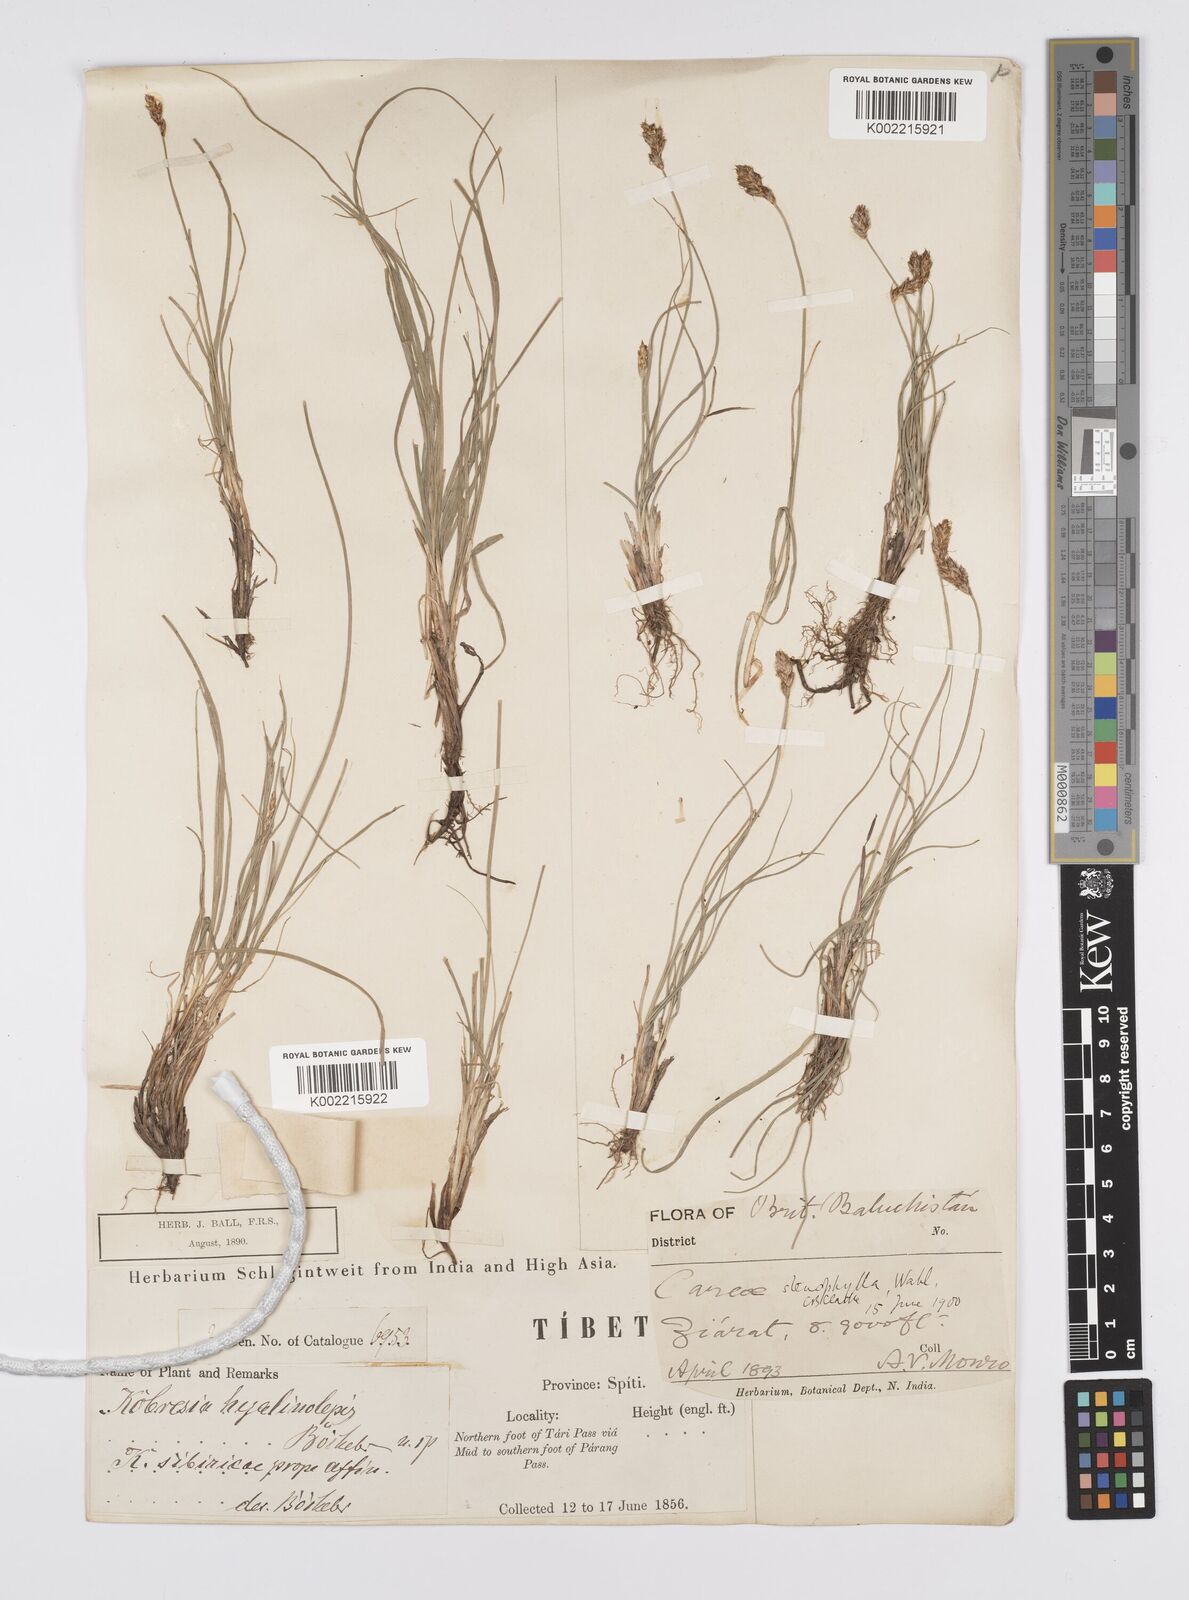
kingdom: Plantae
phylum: Tracheophyta
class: Liliopsida
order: Poales
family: Cyperaceae
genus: Carex
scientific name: Carex stenophylla
